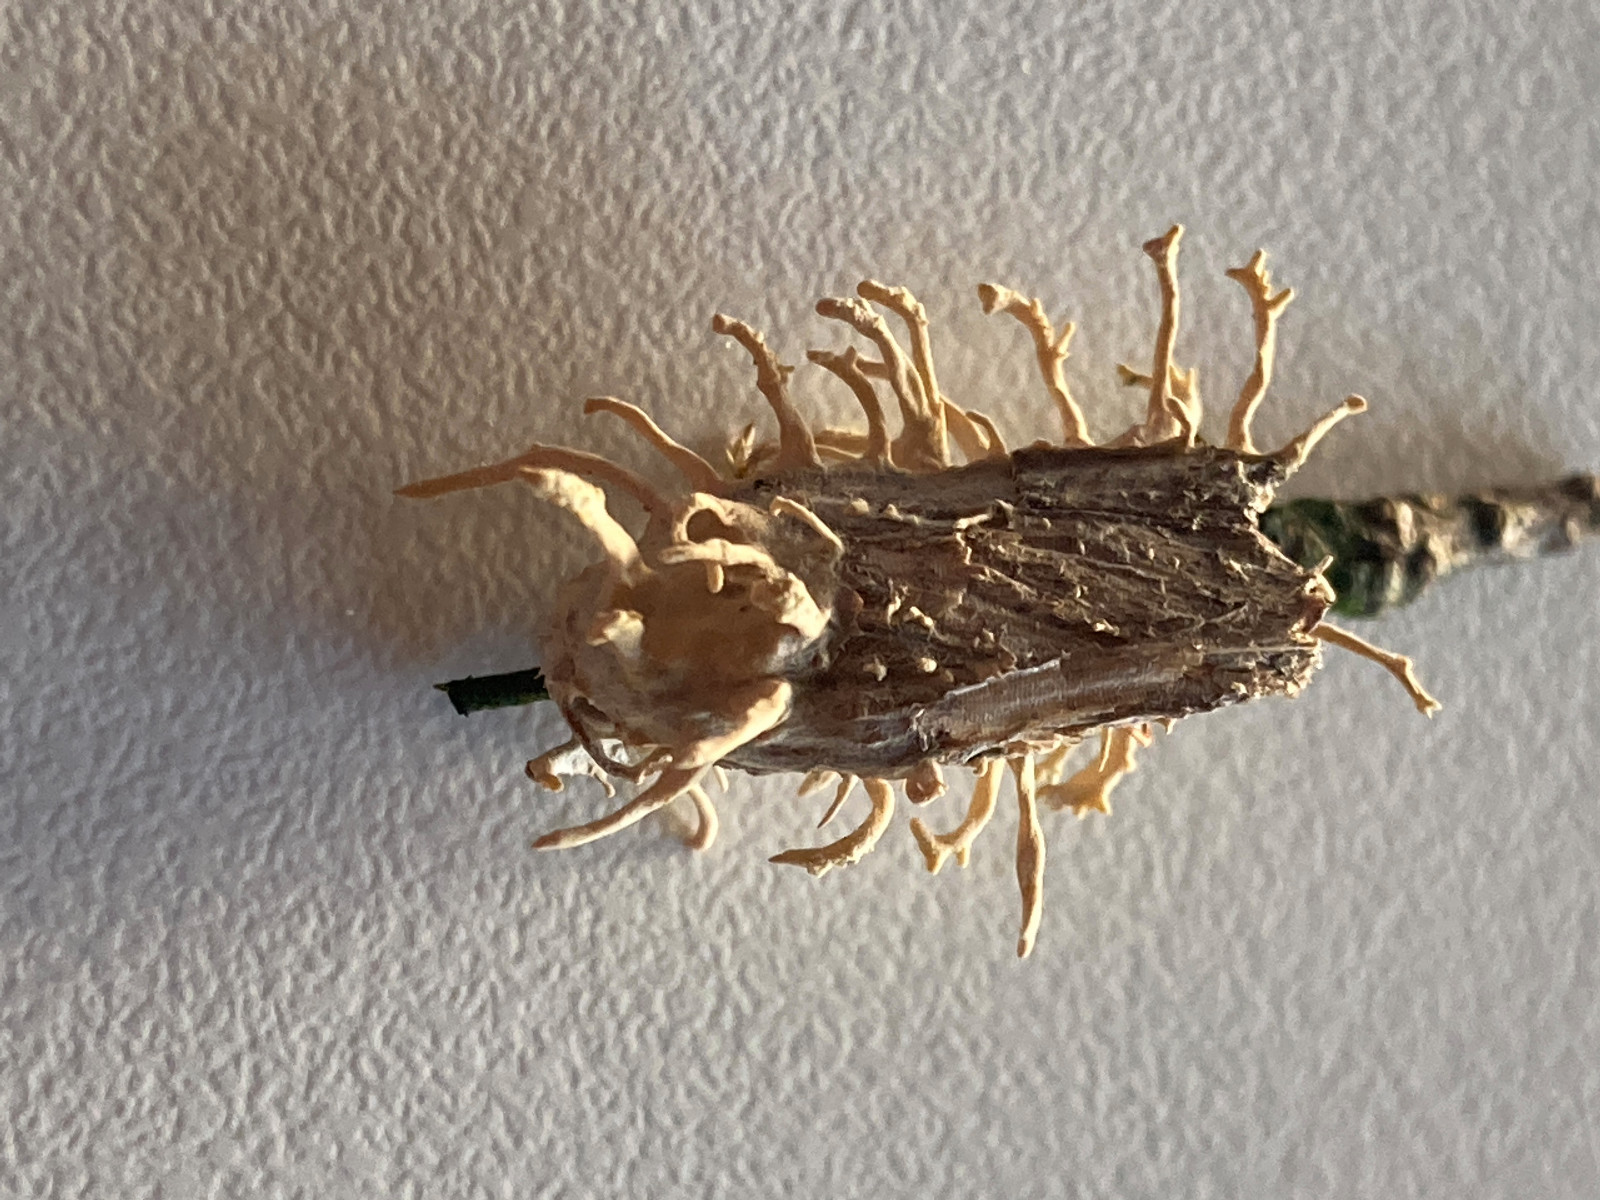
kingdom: Fungi
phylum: Ascomycota
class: Sordariomycetes
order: Hypocreales
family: Cordycipitaceae
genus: Akanthomyces
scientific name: Akanthomyces tuberculatus
